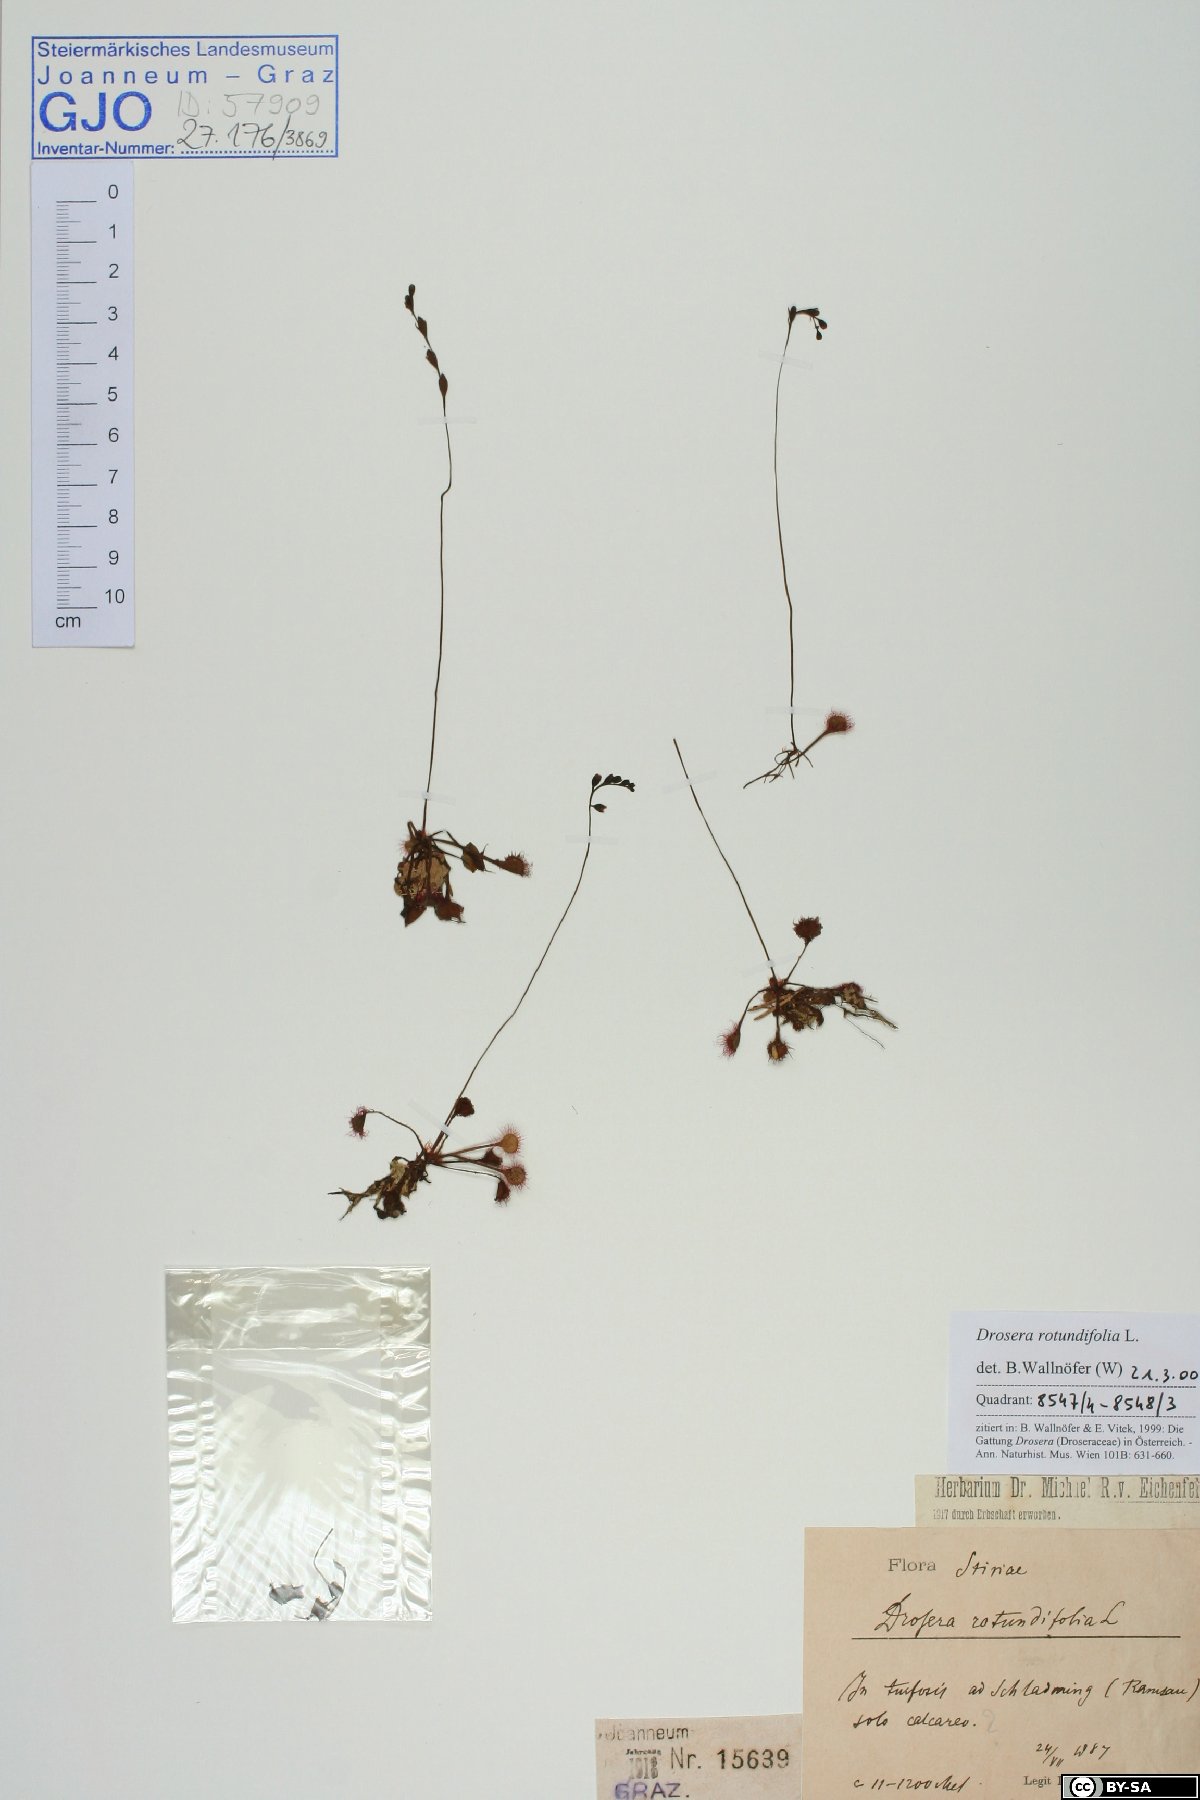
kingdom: Plantae
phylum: Tracheophyta
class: Magnoliopsida
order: Caryophyllales
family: Droseraceae
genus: Drosera
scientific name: Drosera rotundifolia
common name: Round-leaved sundew
